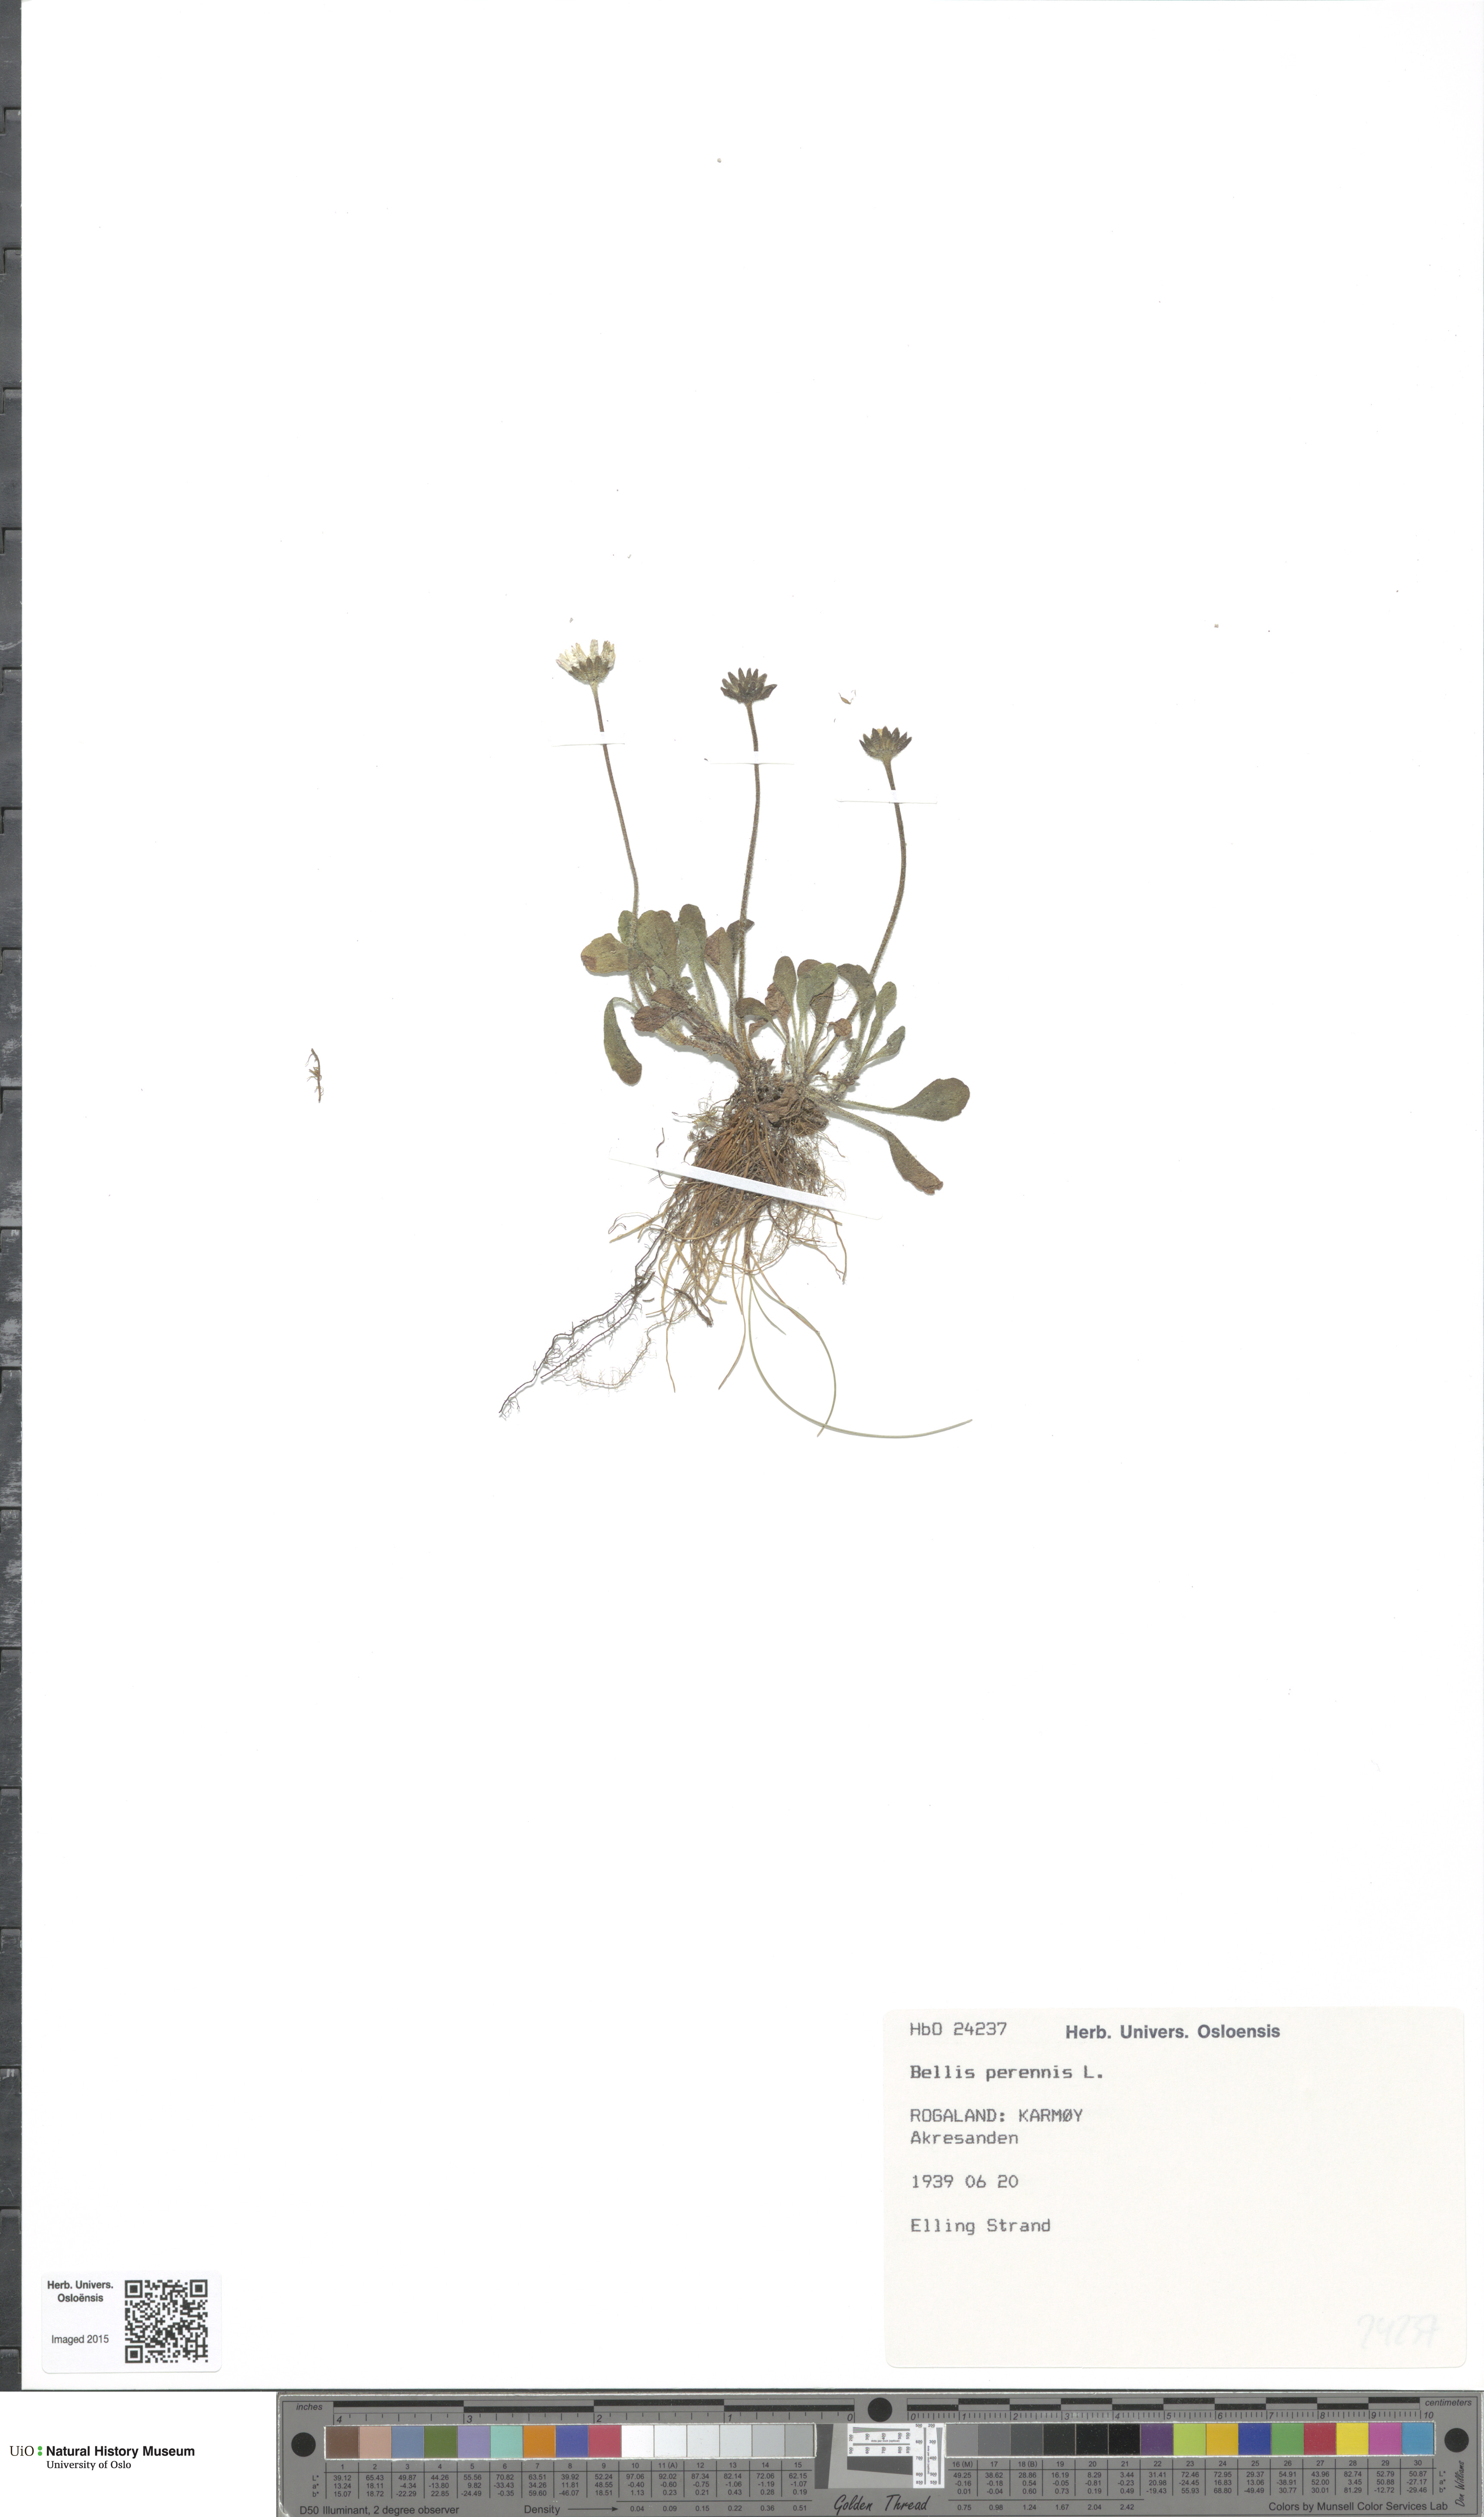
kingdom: Plantae
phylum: Tracheophyta
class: Magnoliopsida
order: Asterales
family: Asteraceae
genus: Bellis
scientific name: Bellis perennis
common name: Lawndaisy
